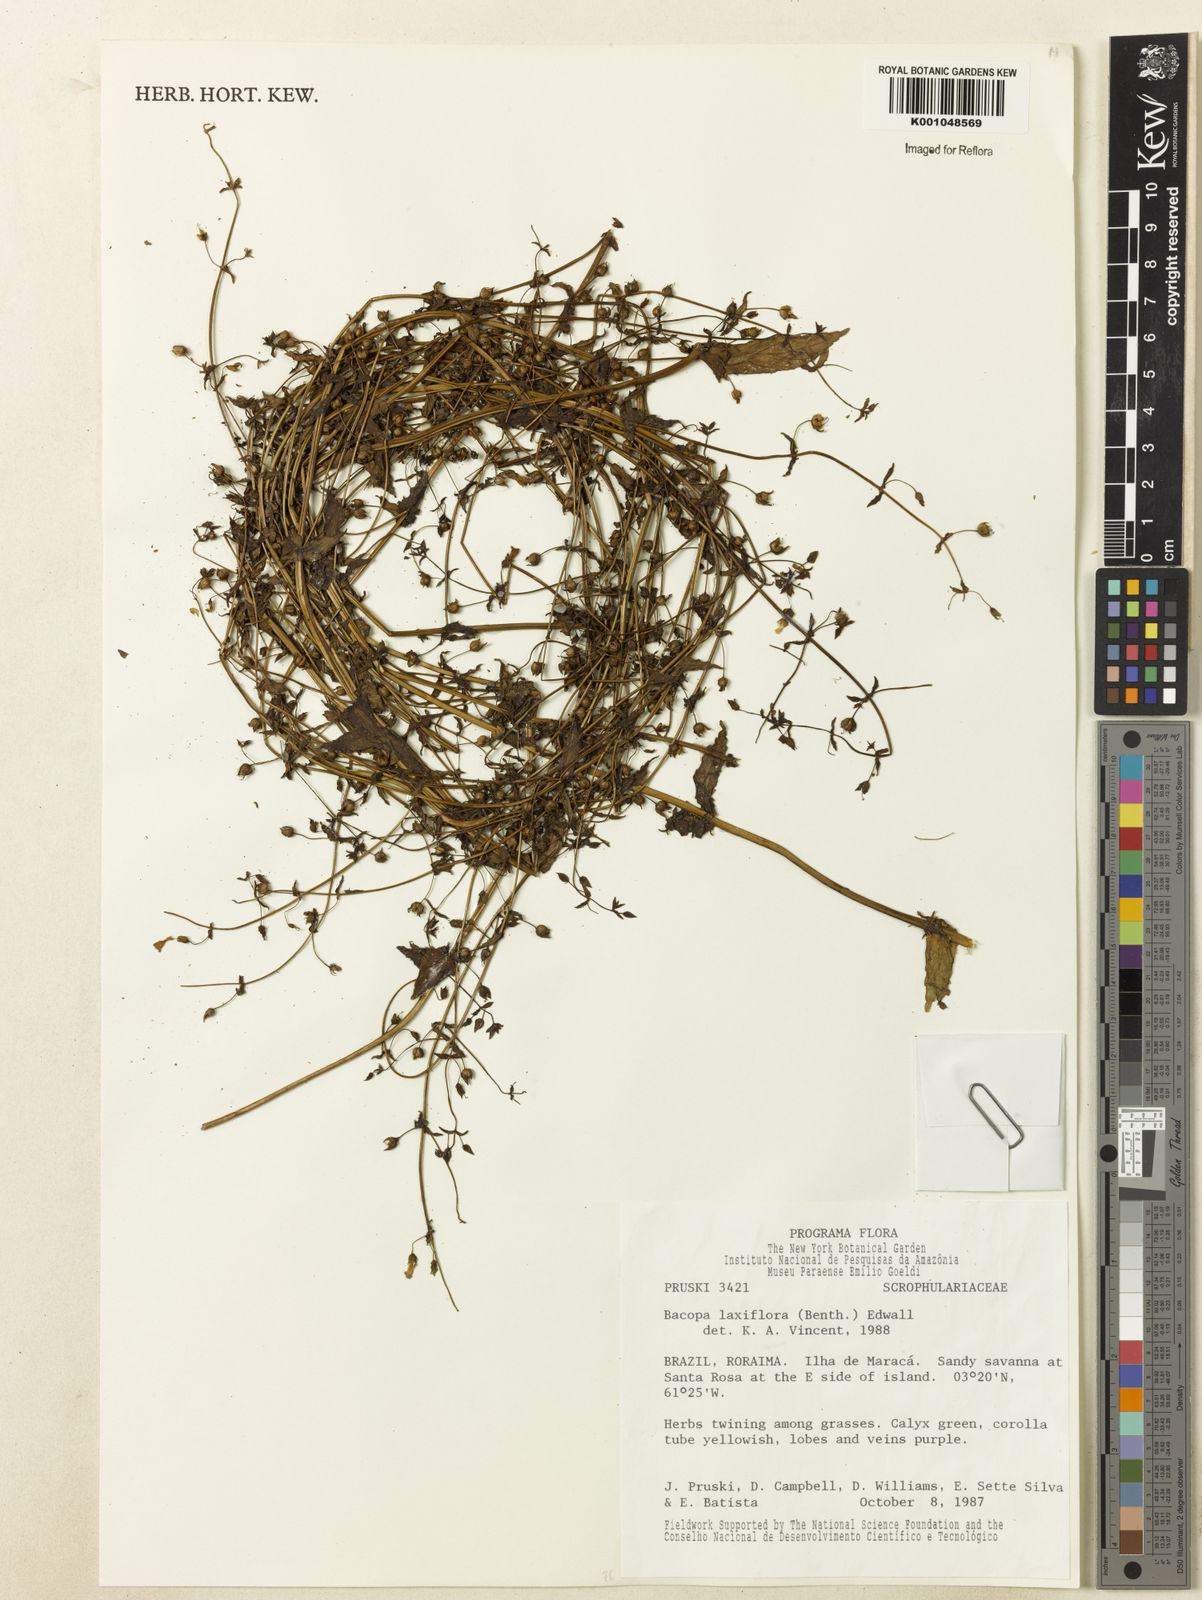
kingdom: Plantae
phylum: Tracheophyta
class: Magnoliopsida
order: Lamiales
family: Plantaginaceae
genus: Bacopa
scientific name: Bacopa laxiflora
